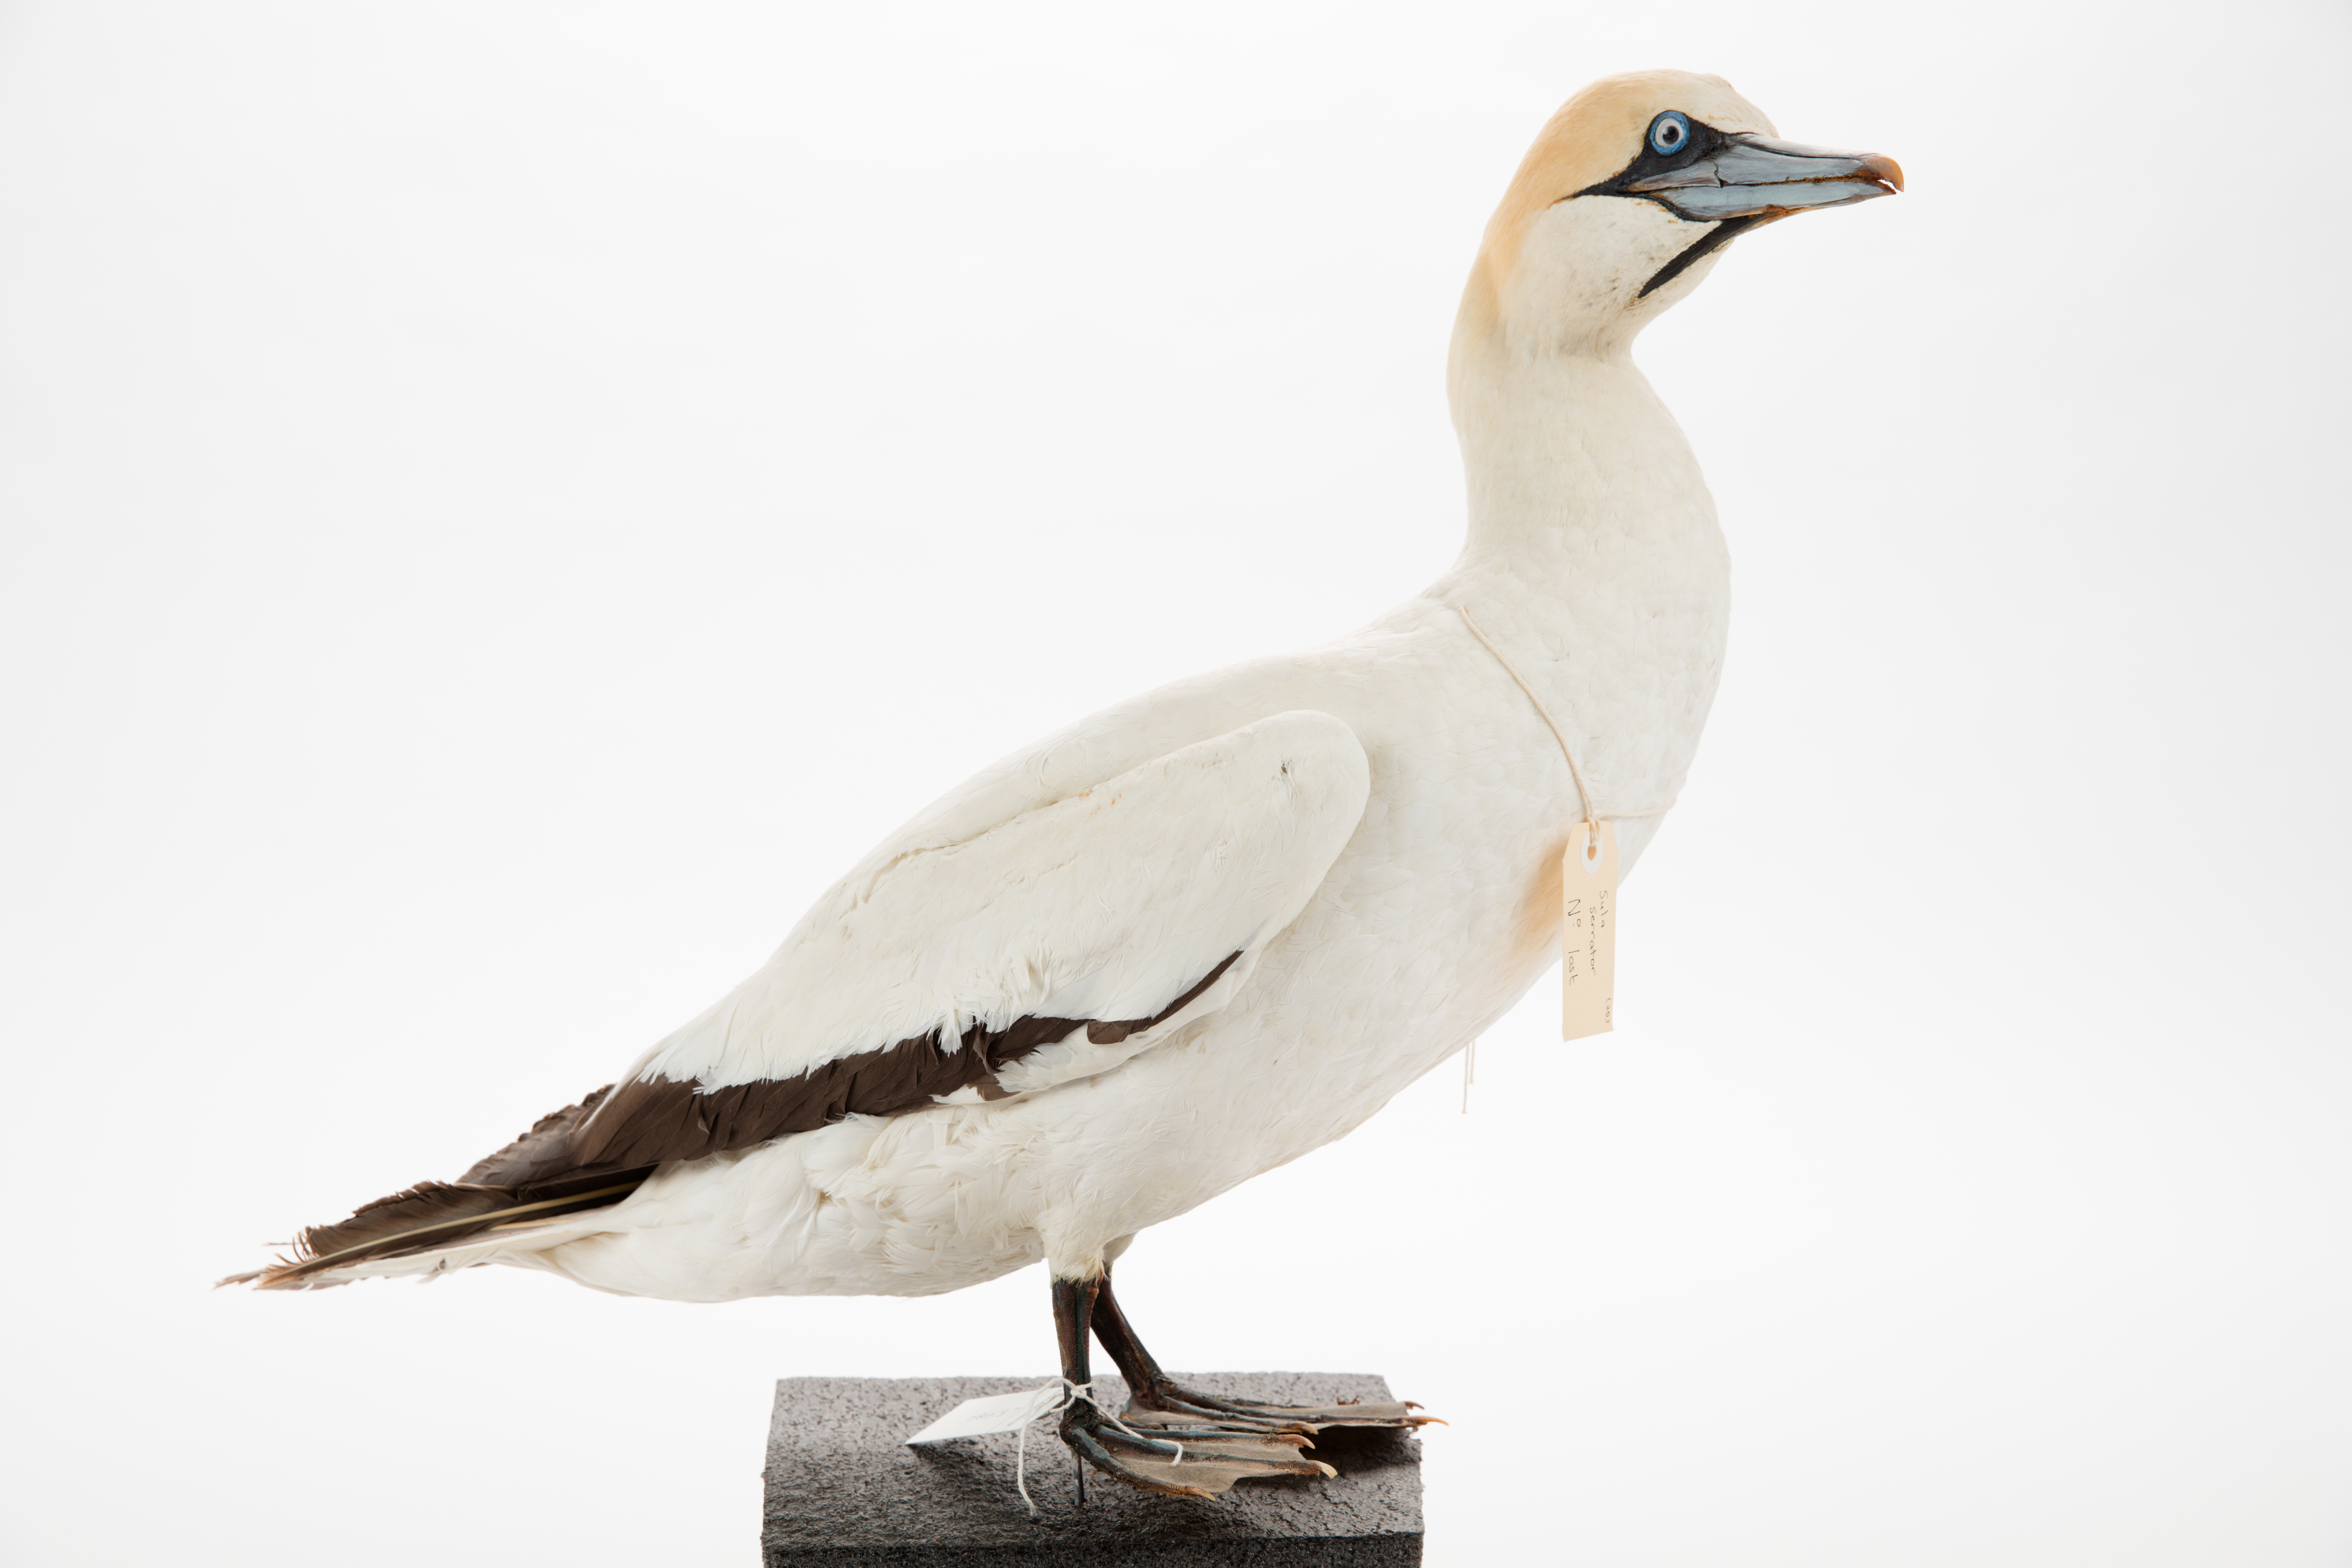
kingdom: Animalia
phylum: Chordata
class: Aves
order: Suliformes
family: Sulidae
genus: Morus
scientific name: Morus serrator
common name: Australasian gannet
